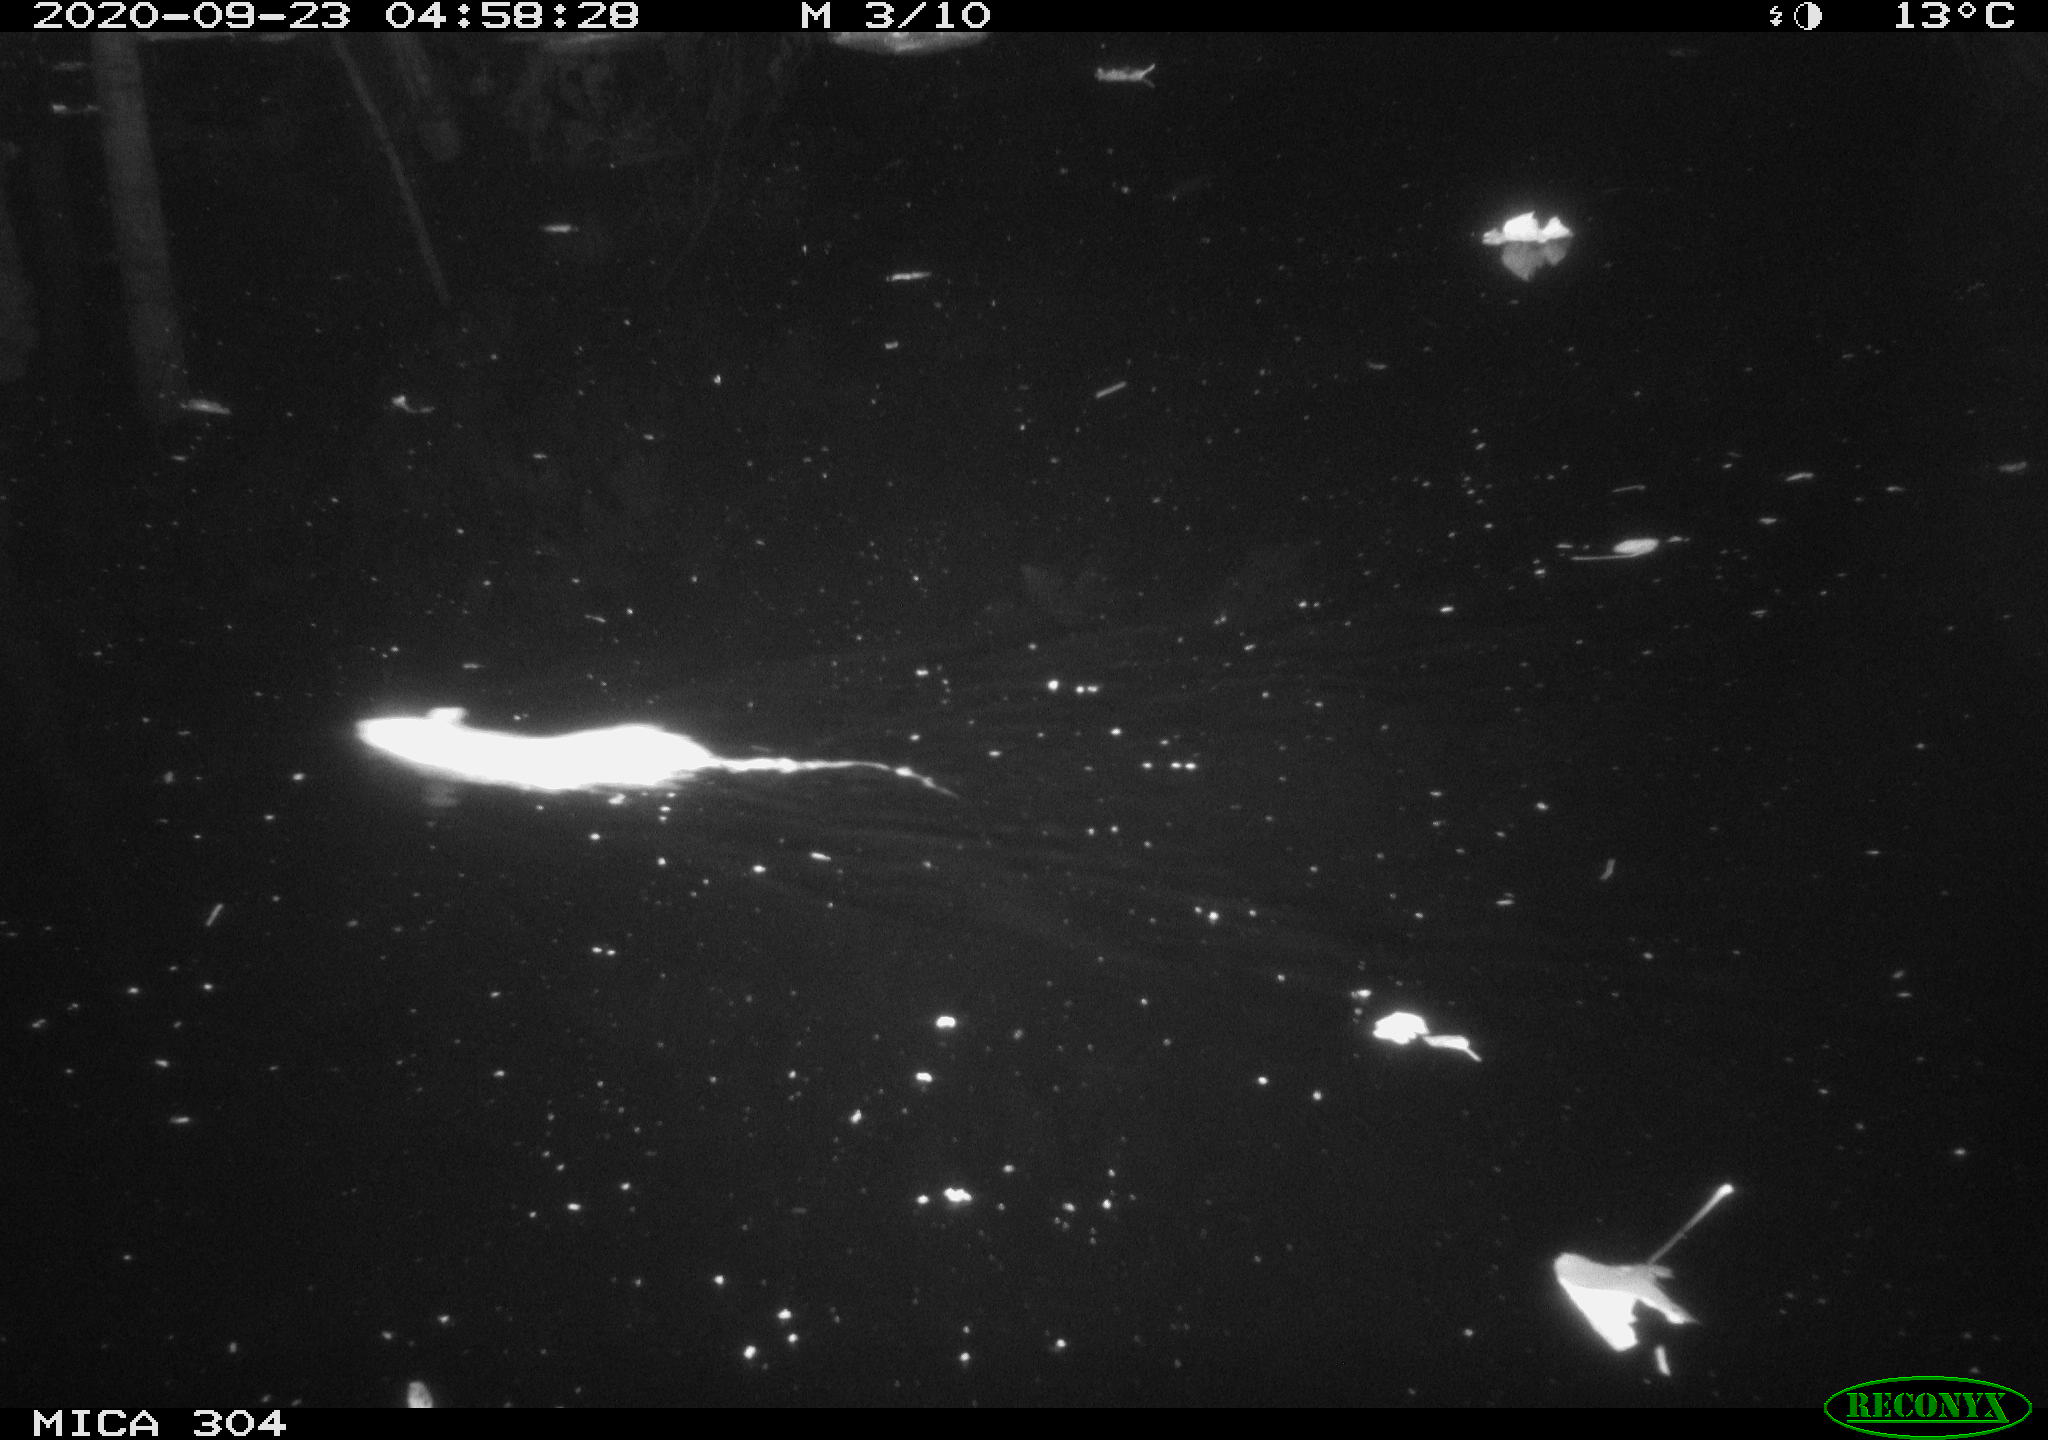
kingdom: Animalia
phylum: Chordata
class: Mammalia
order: Rodentia
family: Muridae
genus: Rattus
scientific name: Rattus norvegicus
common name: Brown rat
